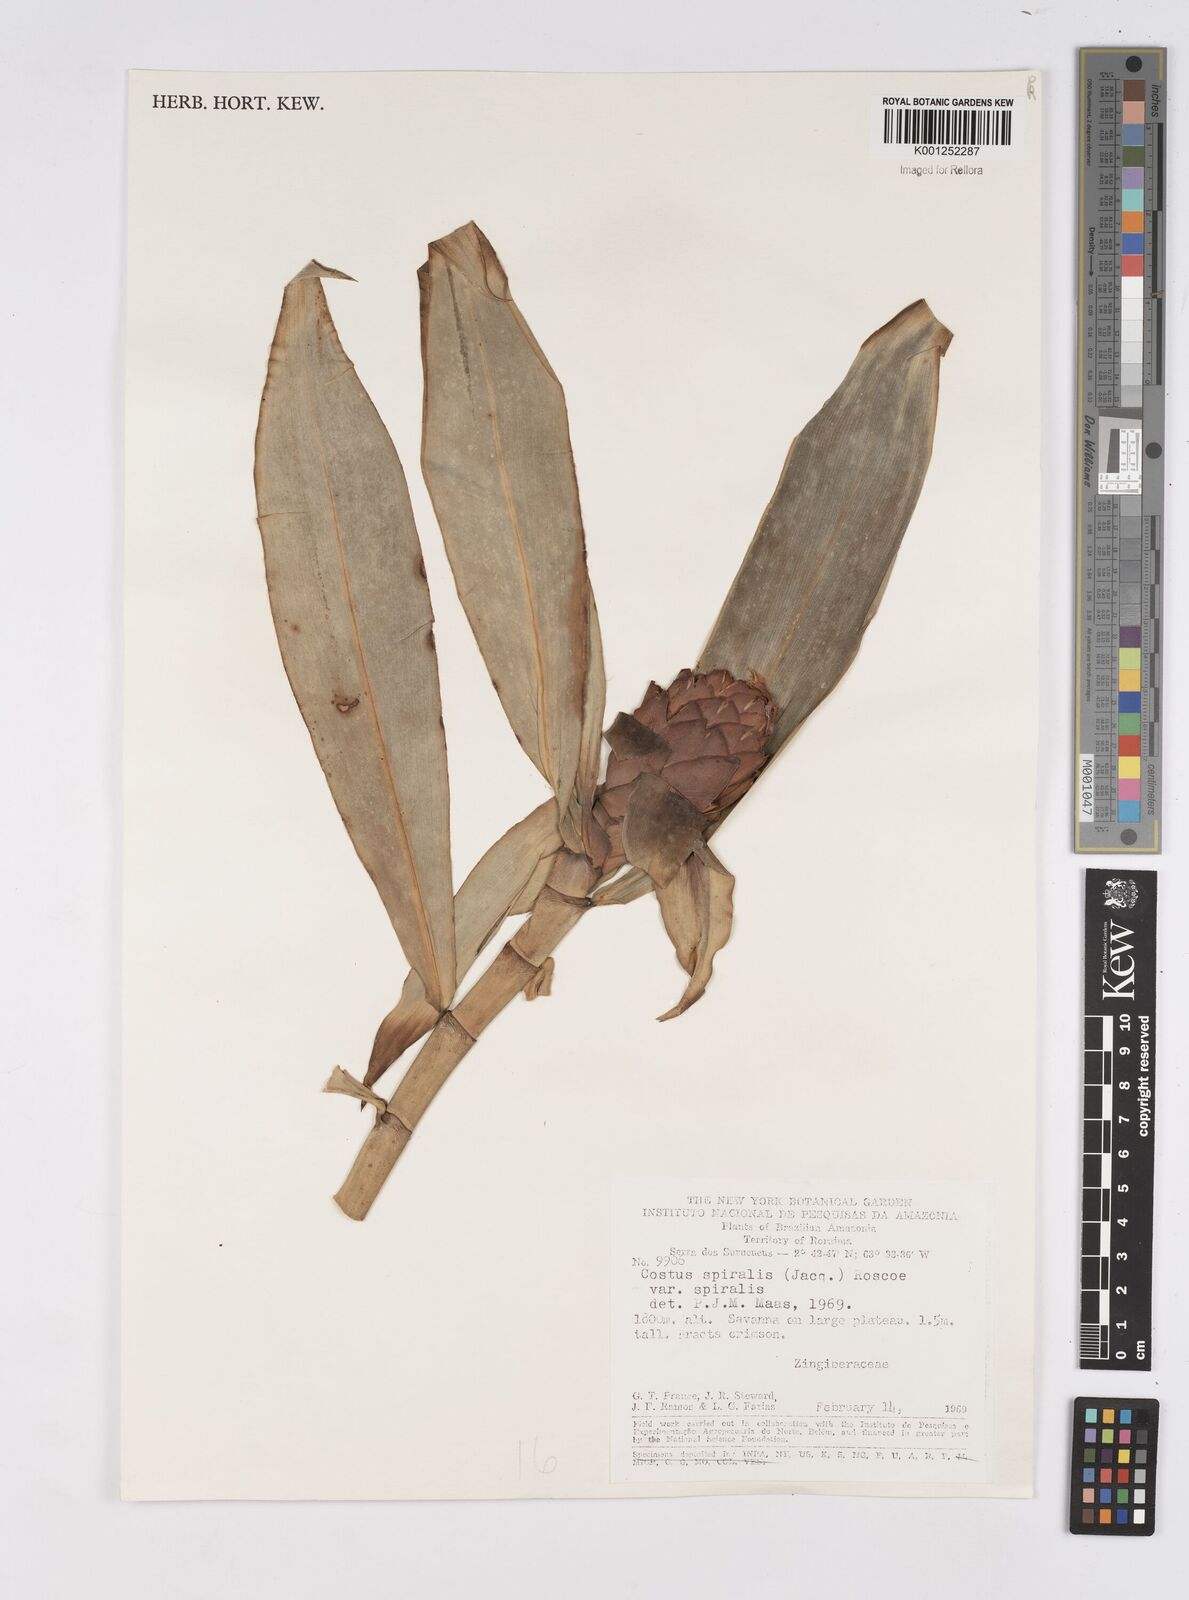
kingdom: Plantae
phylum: Tracheophyta
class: Liliopsida
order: Zingiberales
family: Costaceae
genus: Costus
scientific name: Costus spiralis
